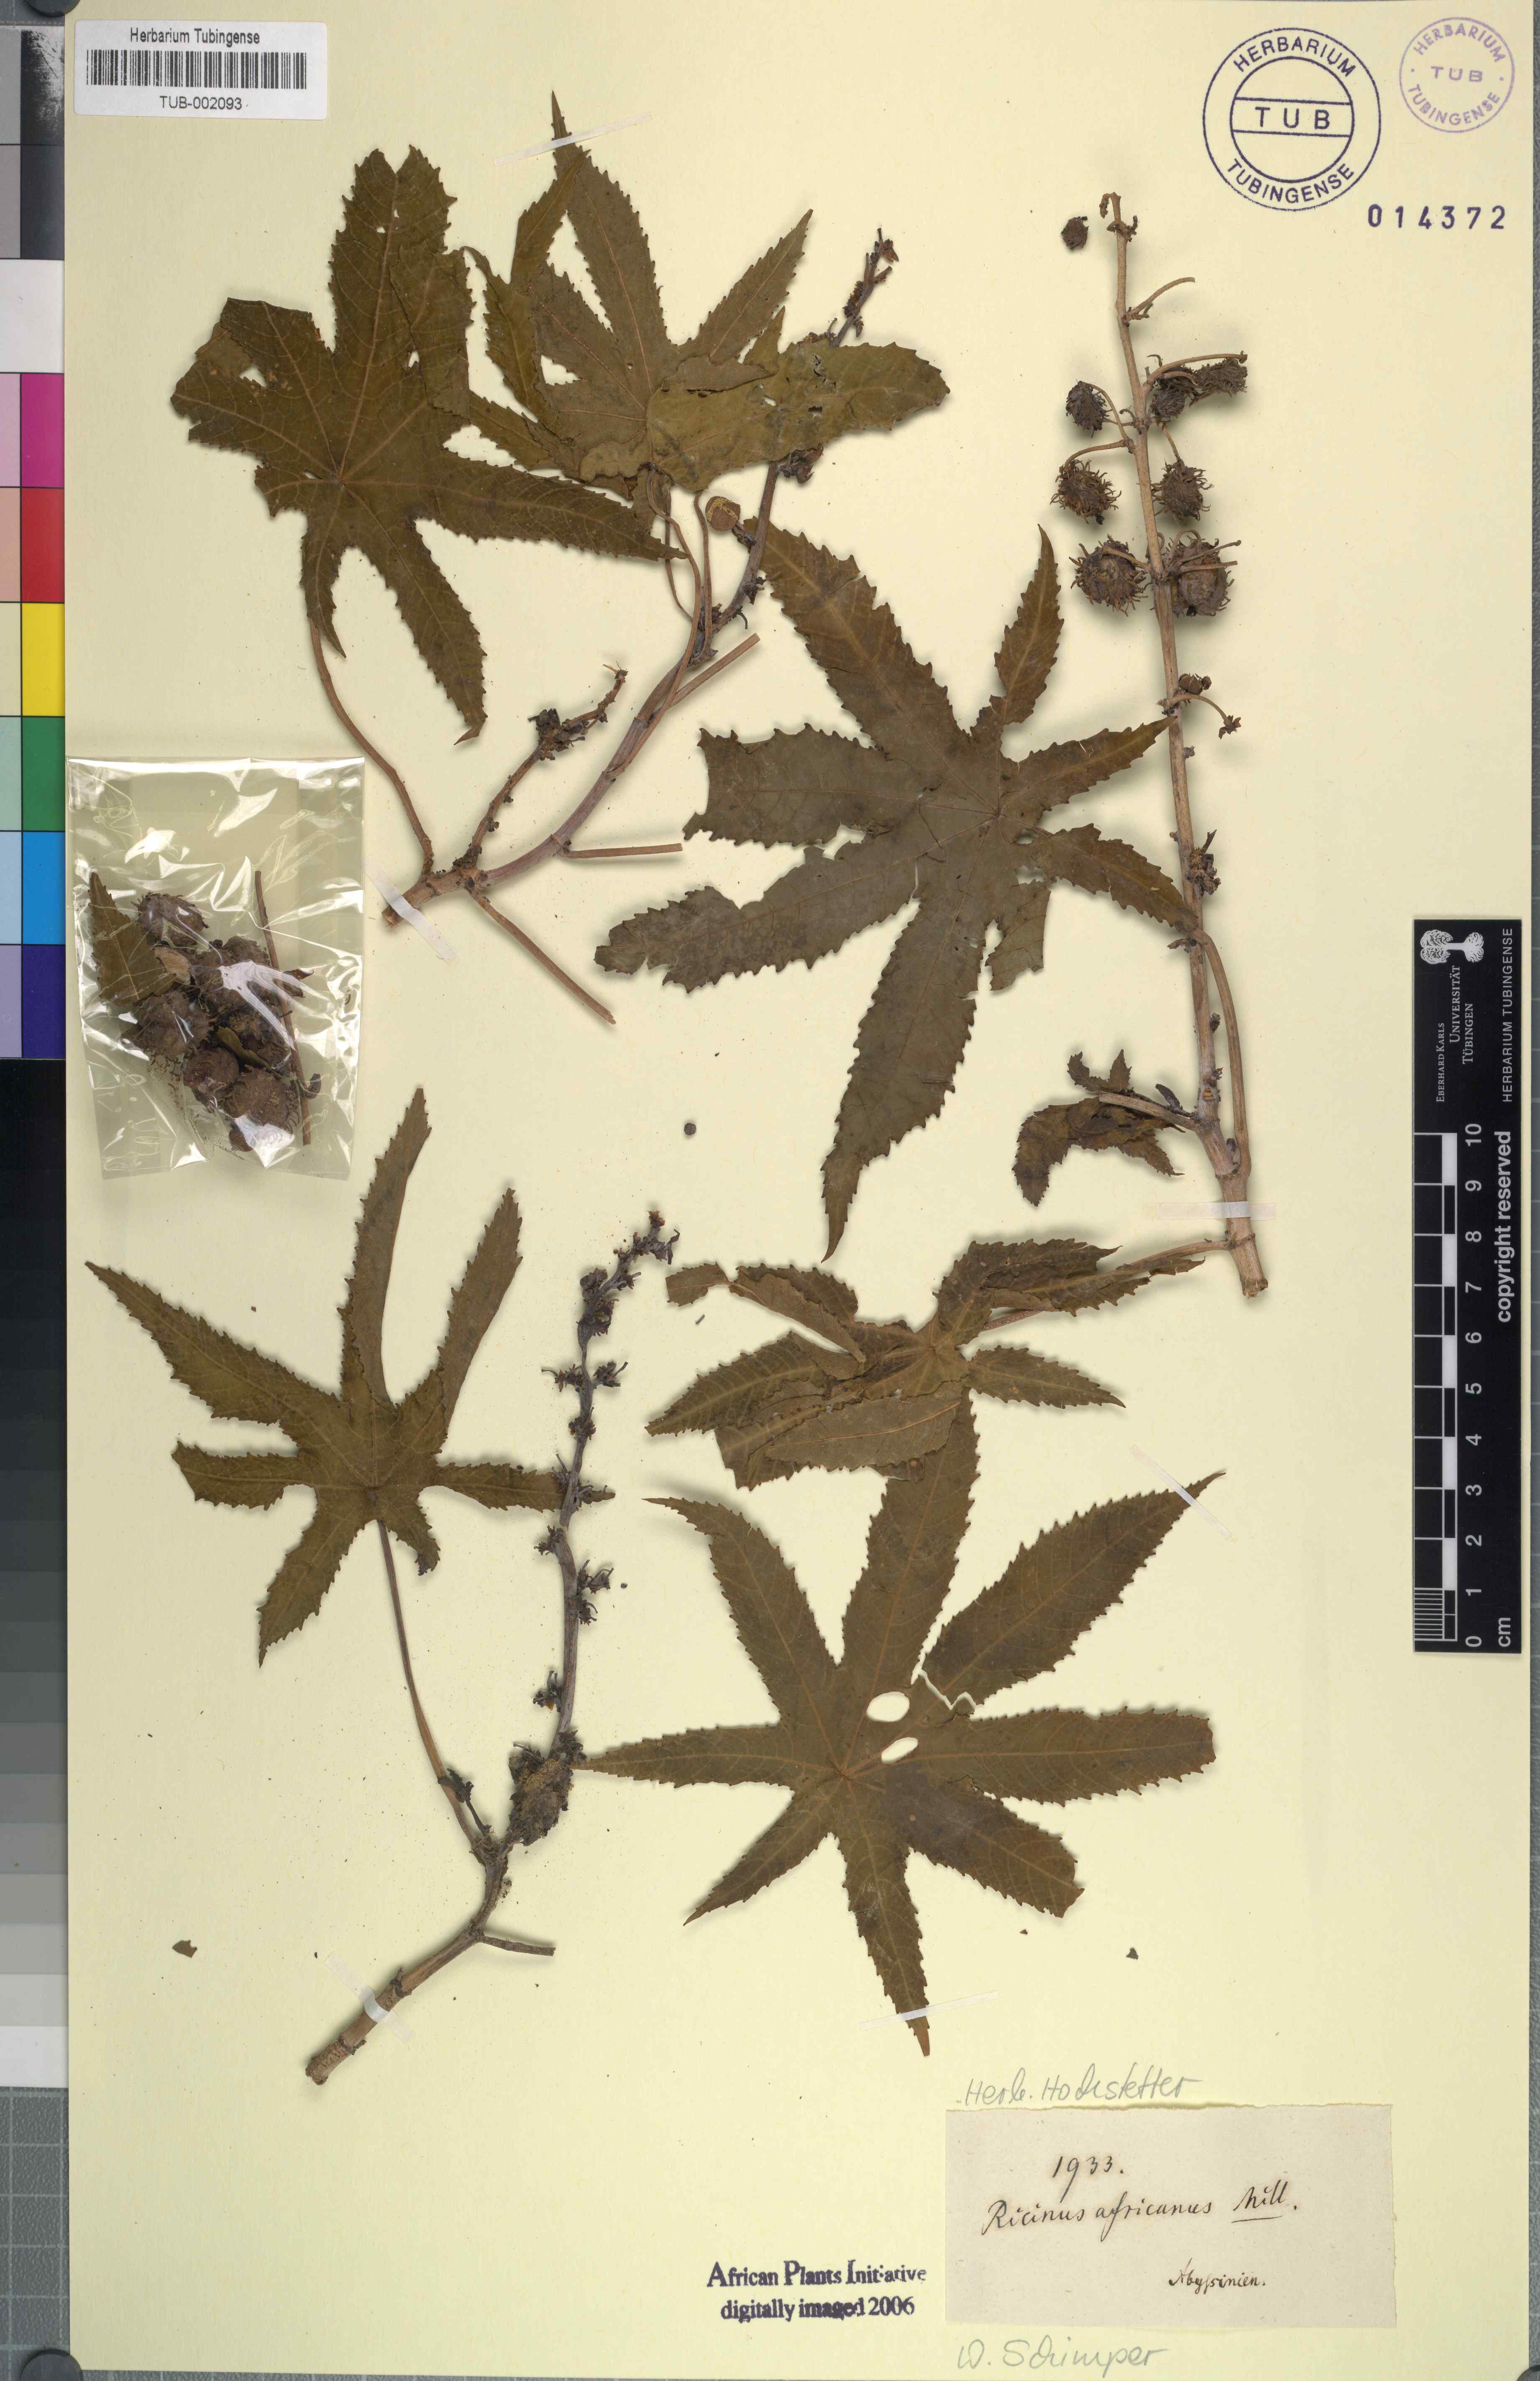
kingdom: Plantae
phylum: Tracheophyta
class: Magnoliopsida
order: Malpighiales
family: Euphorbiaceae
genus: Ricinus
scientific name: Ricinus communis
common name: Castor-oil-plant
